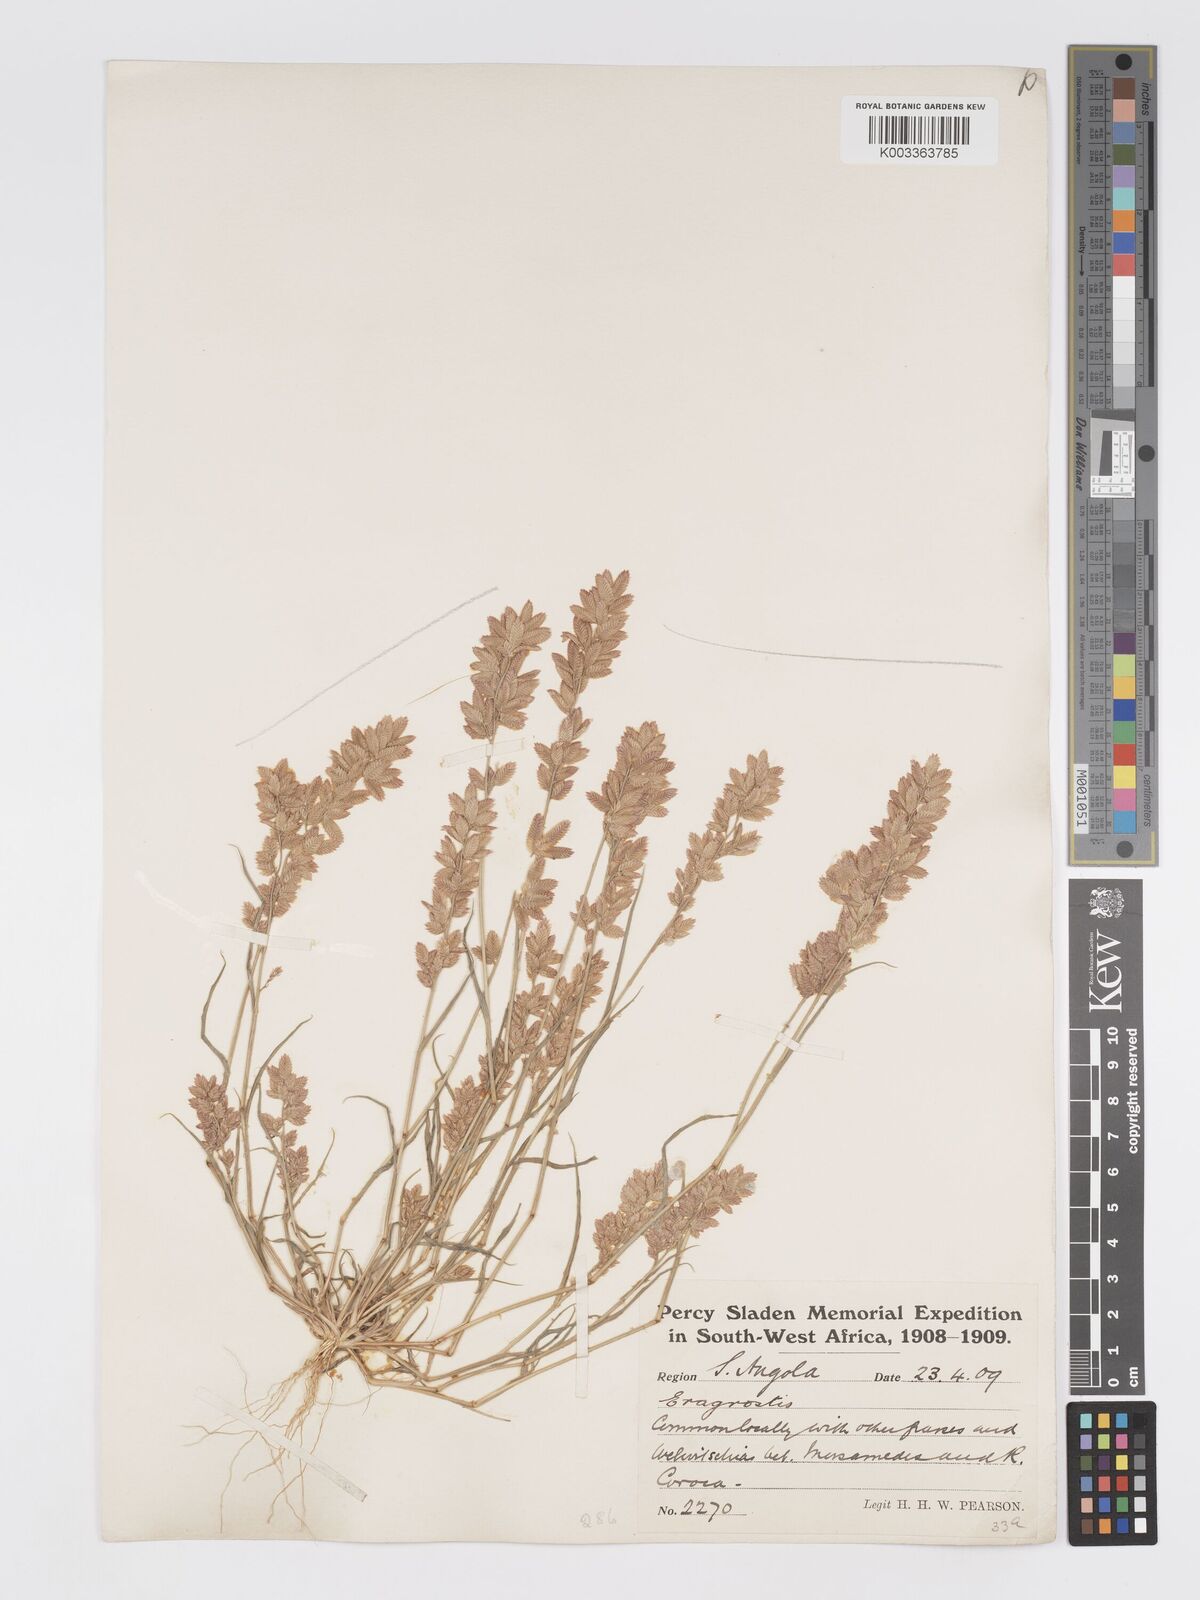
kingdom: Plantae
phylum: Tracheophyta
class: Liliopsida
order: Poales
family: Poaceae
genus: Eragrostis
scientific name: Eragrostis cilianensis
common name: Stinkgrass
